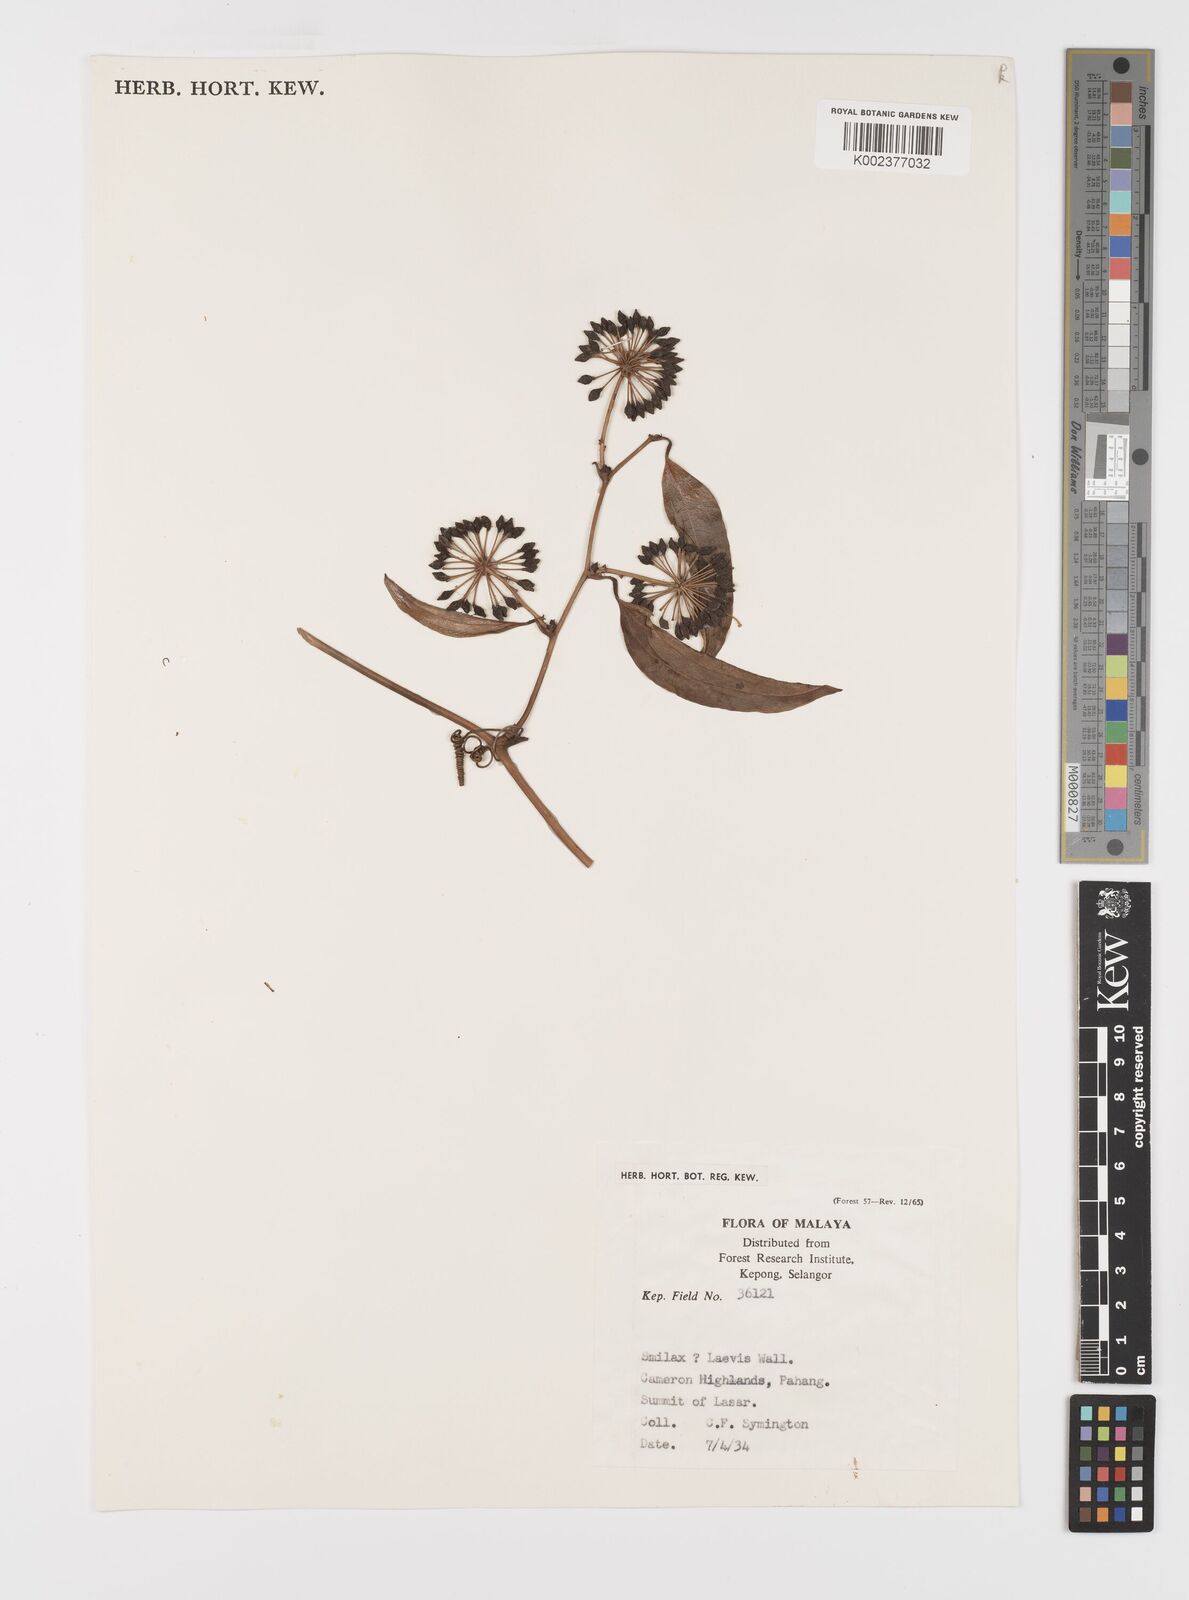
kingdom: Plantae
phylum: Tracheophyta
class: Liliopsida
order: Liliales
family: Smilacaceae
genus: Smilax
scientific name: Smilax laevis
